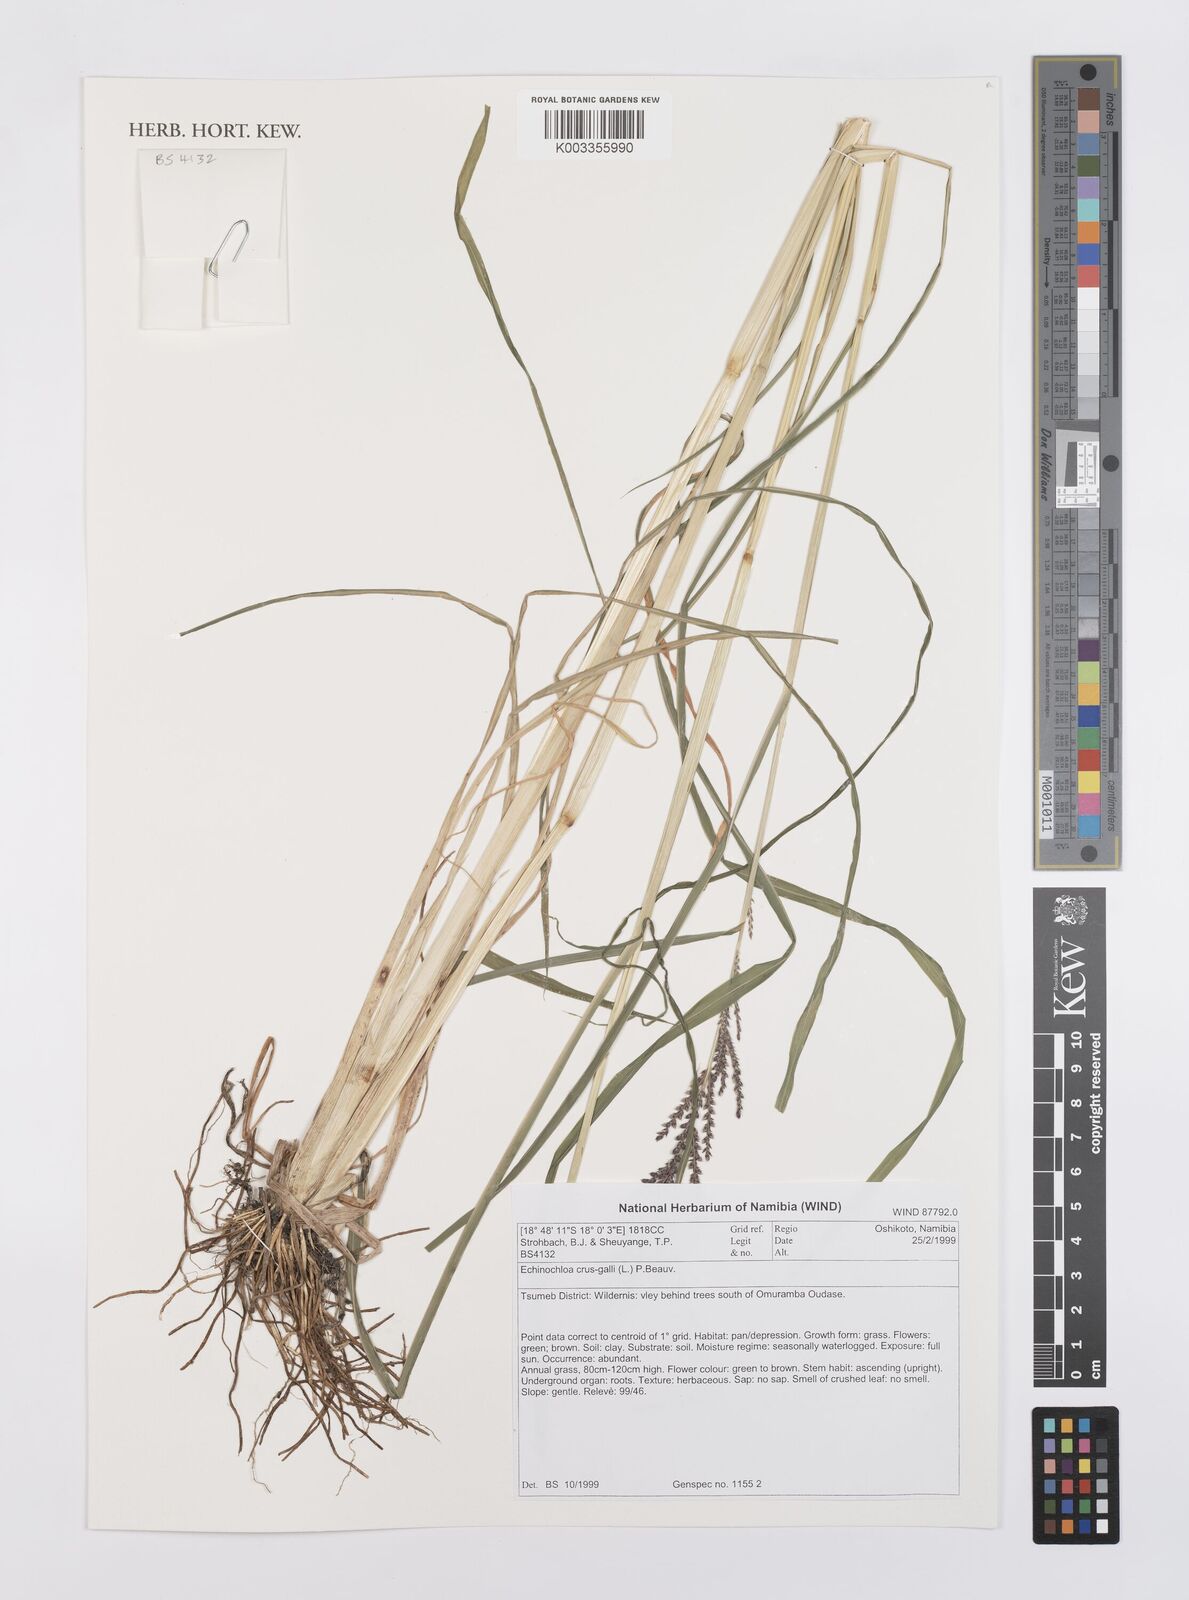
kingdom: Plantae
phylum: Tracheophyta
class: Liliopsida
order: Poales
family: Poaceae
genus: Echinochloa
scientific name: Echinochloa crus-galli
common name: Cockspur
